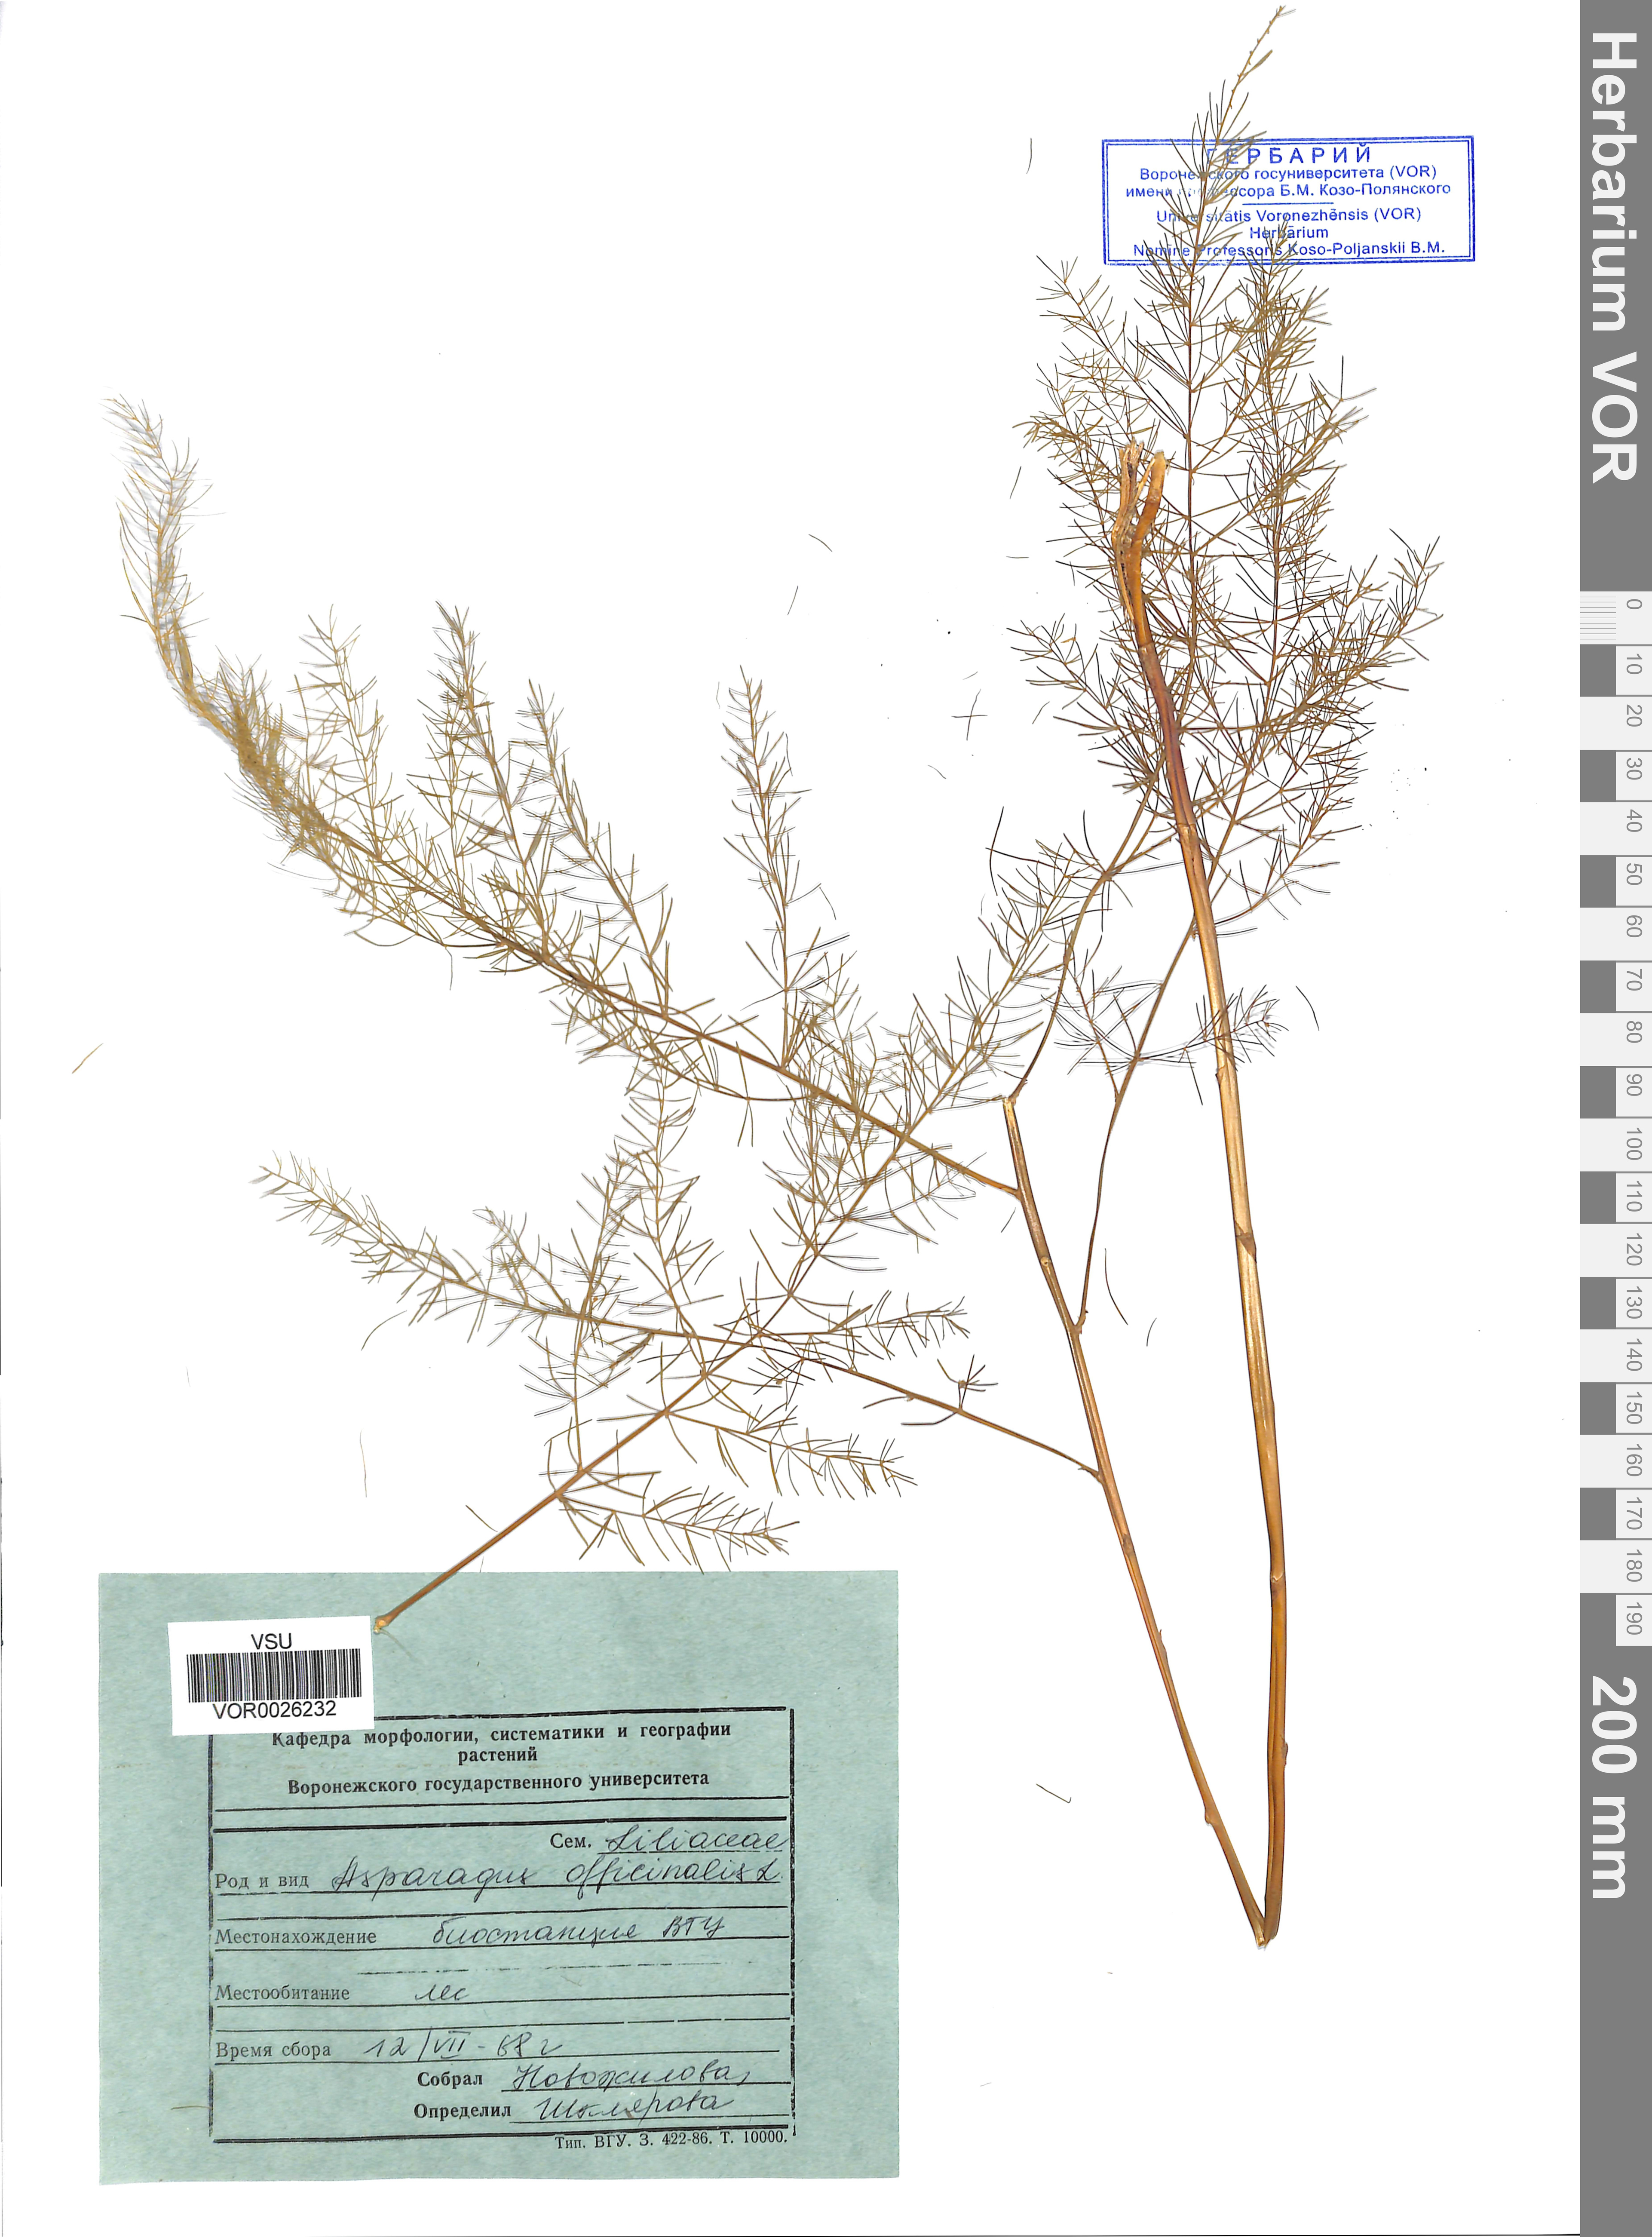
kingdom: Plantae
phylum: Tracheophyta
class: Liliopsida
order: Asparagales
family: Asparagaceae
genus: Asparagus
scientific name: Asparagus officinalis
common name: Garden asparagus
